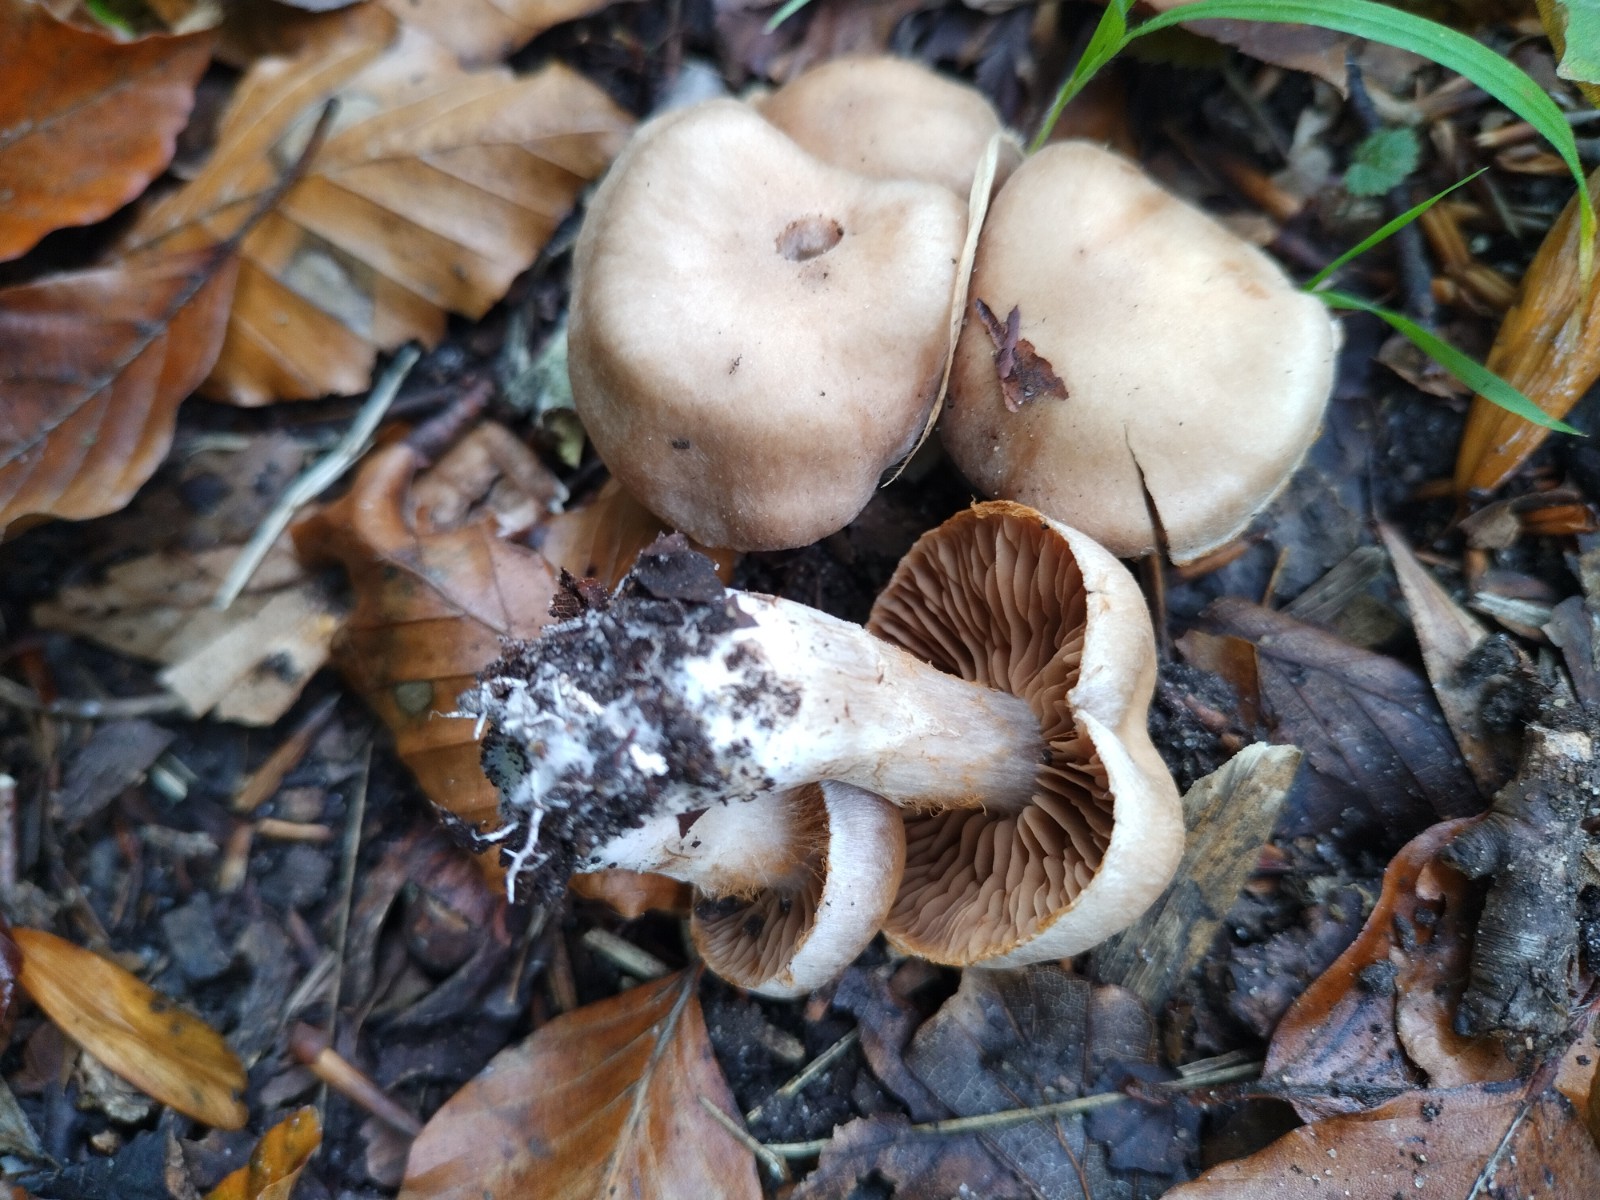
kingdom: Fungi
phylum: Basidiomycota
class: Agaricomycetes
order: Agaricales
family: Cortinariaceae
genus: Cortinarius
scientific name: Cortinarius
